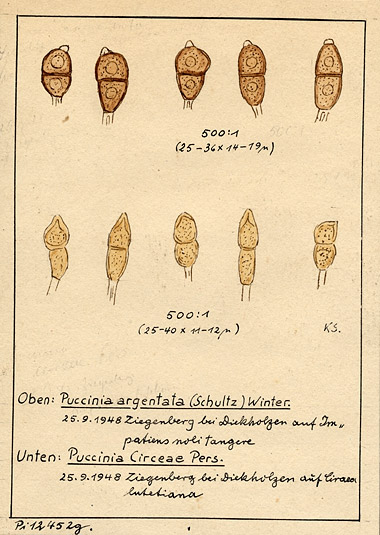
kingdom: Fungi
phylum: Basidiomycota
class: Pucciniomycetes
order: Pucciniales
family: Pucciniaceae
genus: Puccinia
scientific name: Puccinia argentata
